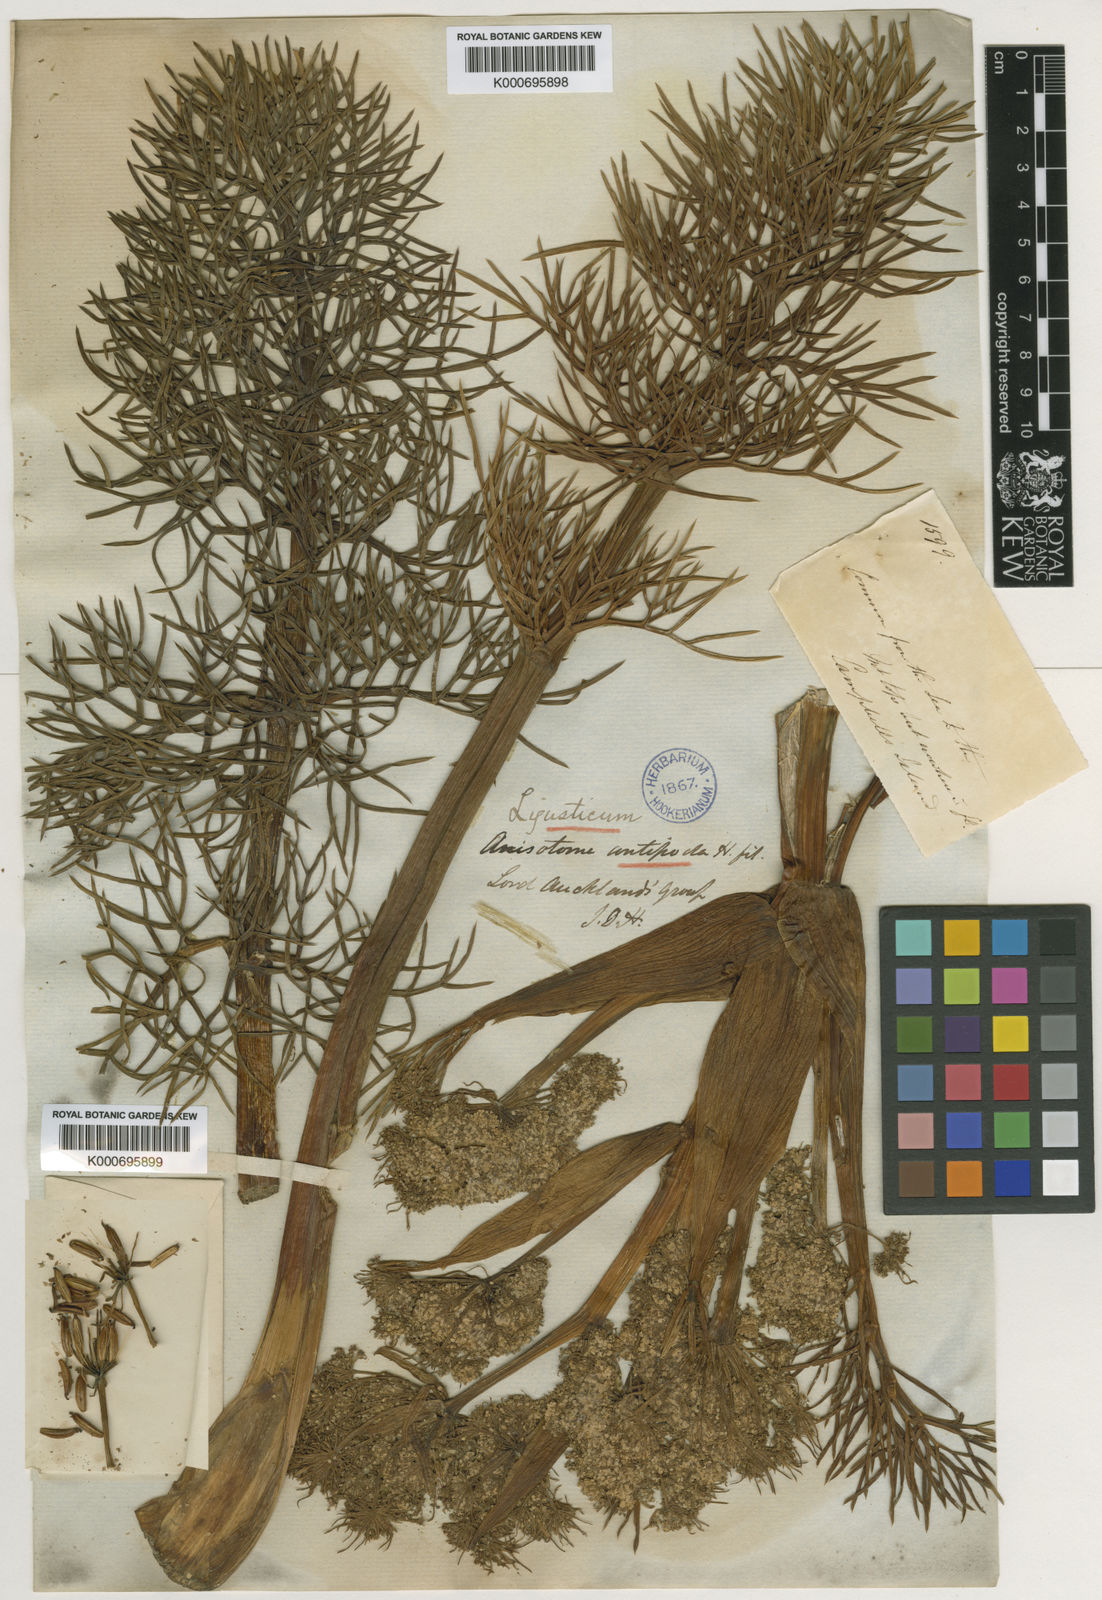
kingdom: Plantae
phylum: Tracheophyta
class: Magnoliopsida
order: Apiales
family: Apiaceae
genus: Anisotome
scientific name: Anisotome antipoda
